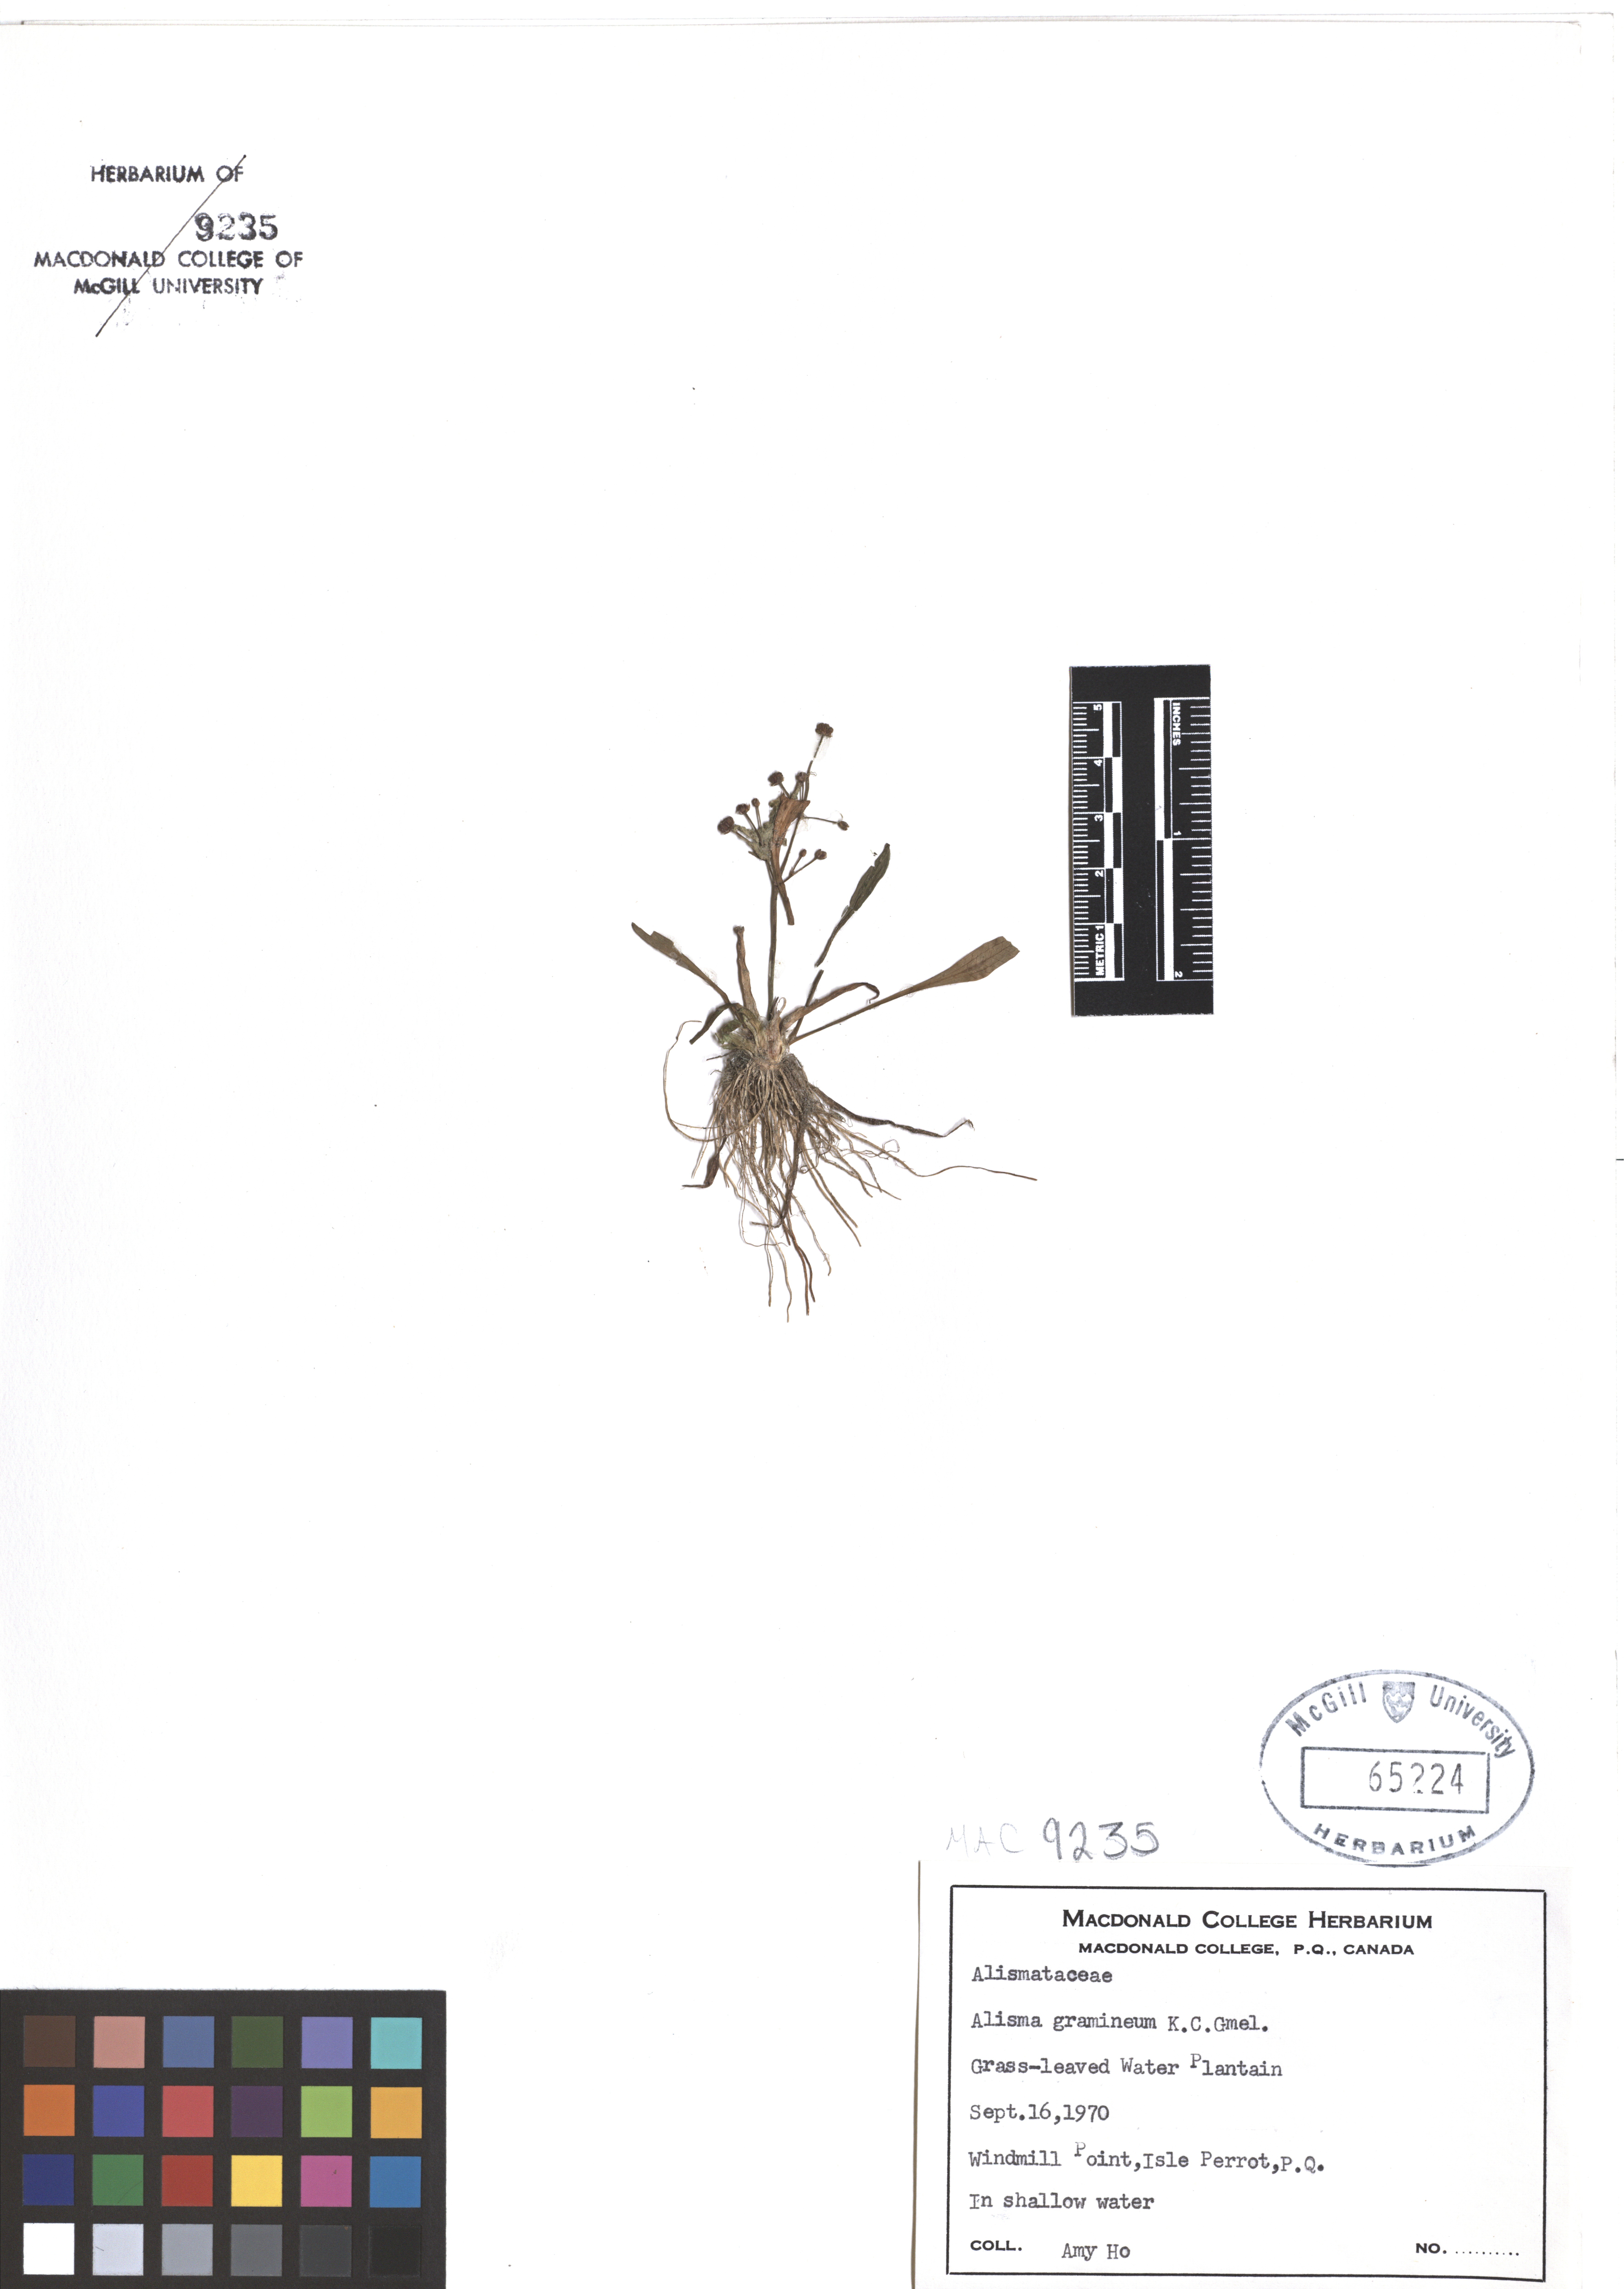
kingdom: Plantae
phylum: Tracheophyta
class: Liliopsida
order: Alismatales
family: Alismataceae
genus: Alisma
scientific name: Alisma gramineum
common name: Ribbon-leaved water-plantain
